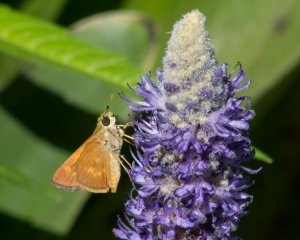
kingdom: Animalia
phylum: Arthropoda
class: Insecta
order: Lepidoptera
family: Hesperiidae
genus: Wallengrenia
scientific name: Wallengrenia otho
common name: Southern Broken-Dash
